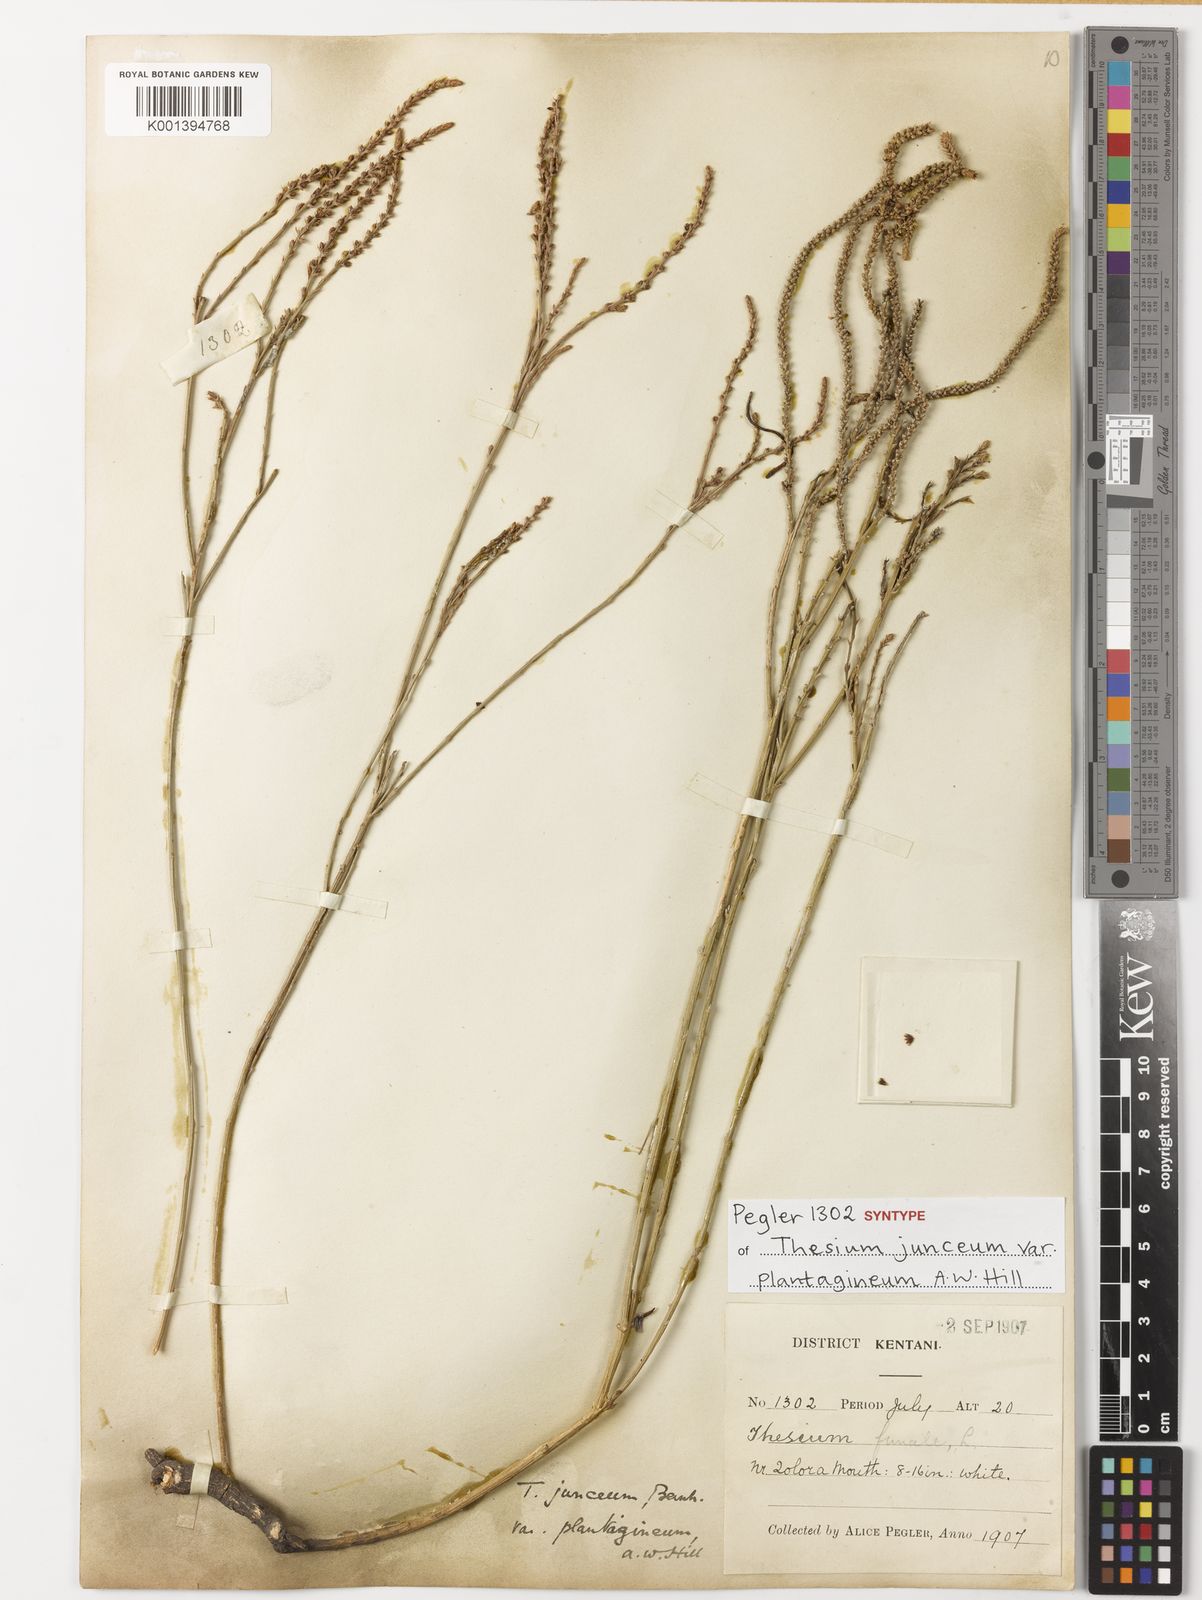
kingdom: Plantae
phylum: Tracheophyta
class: Magnoliopsida
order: Santalales
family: Thesiaceae
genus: Thesium
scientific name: Thesium junceum
